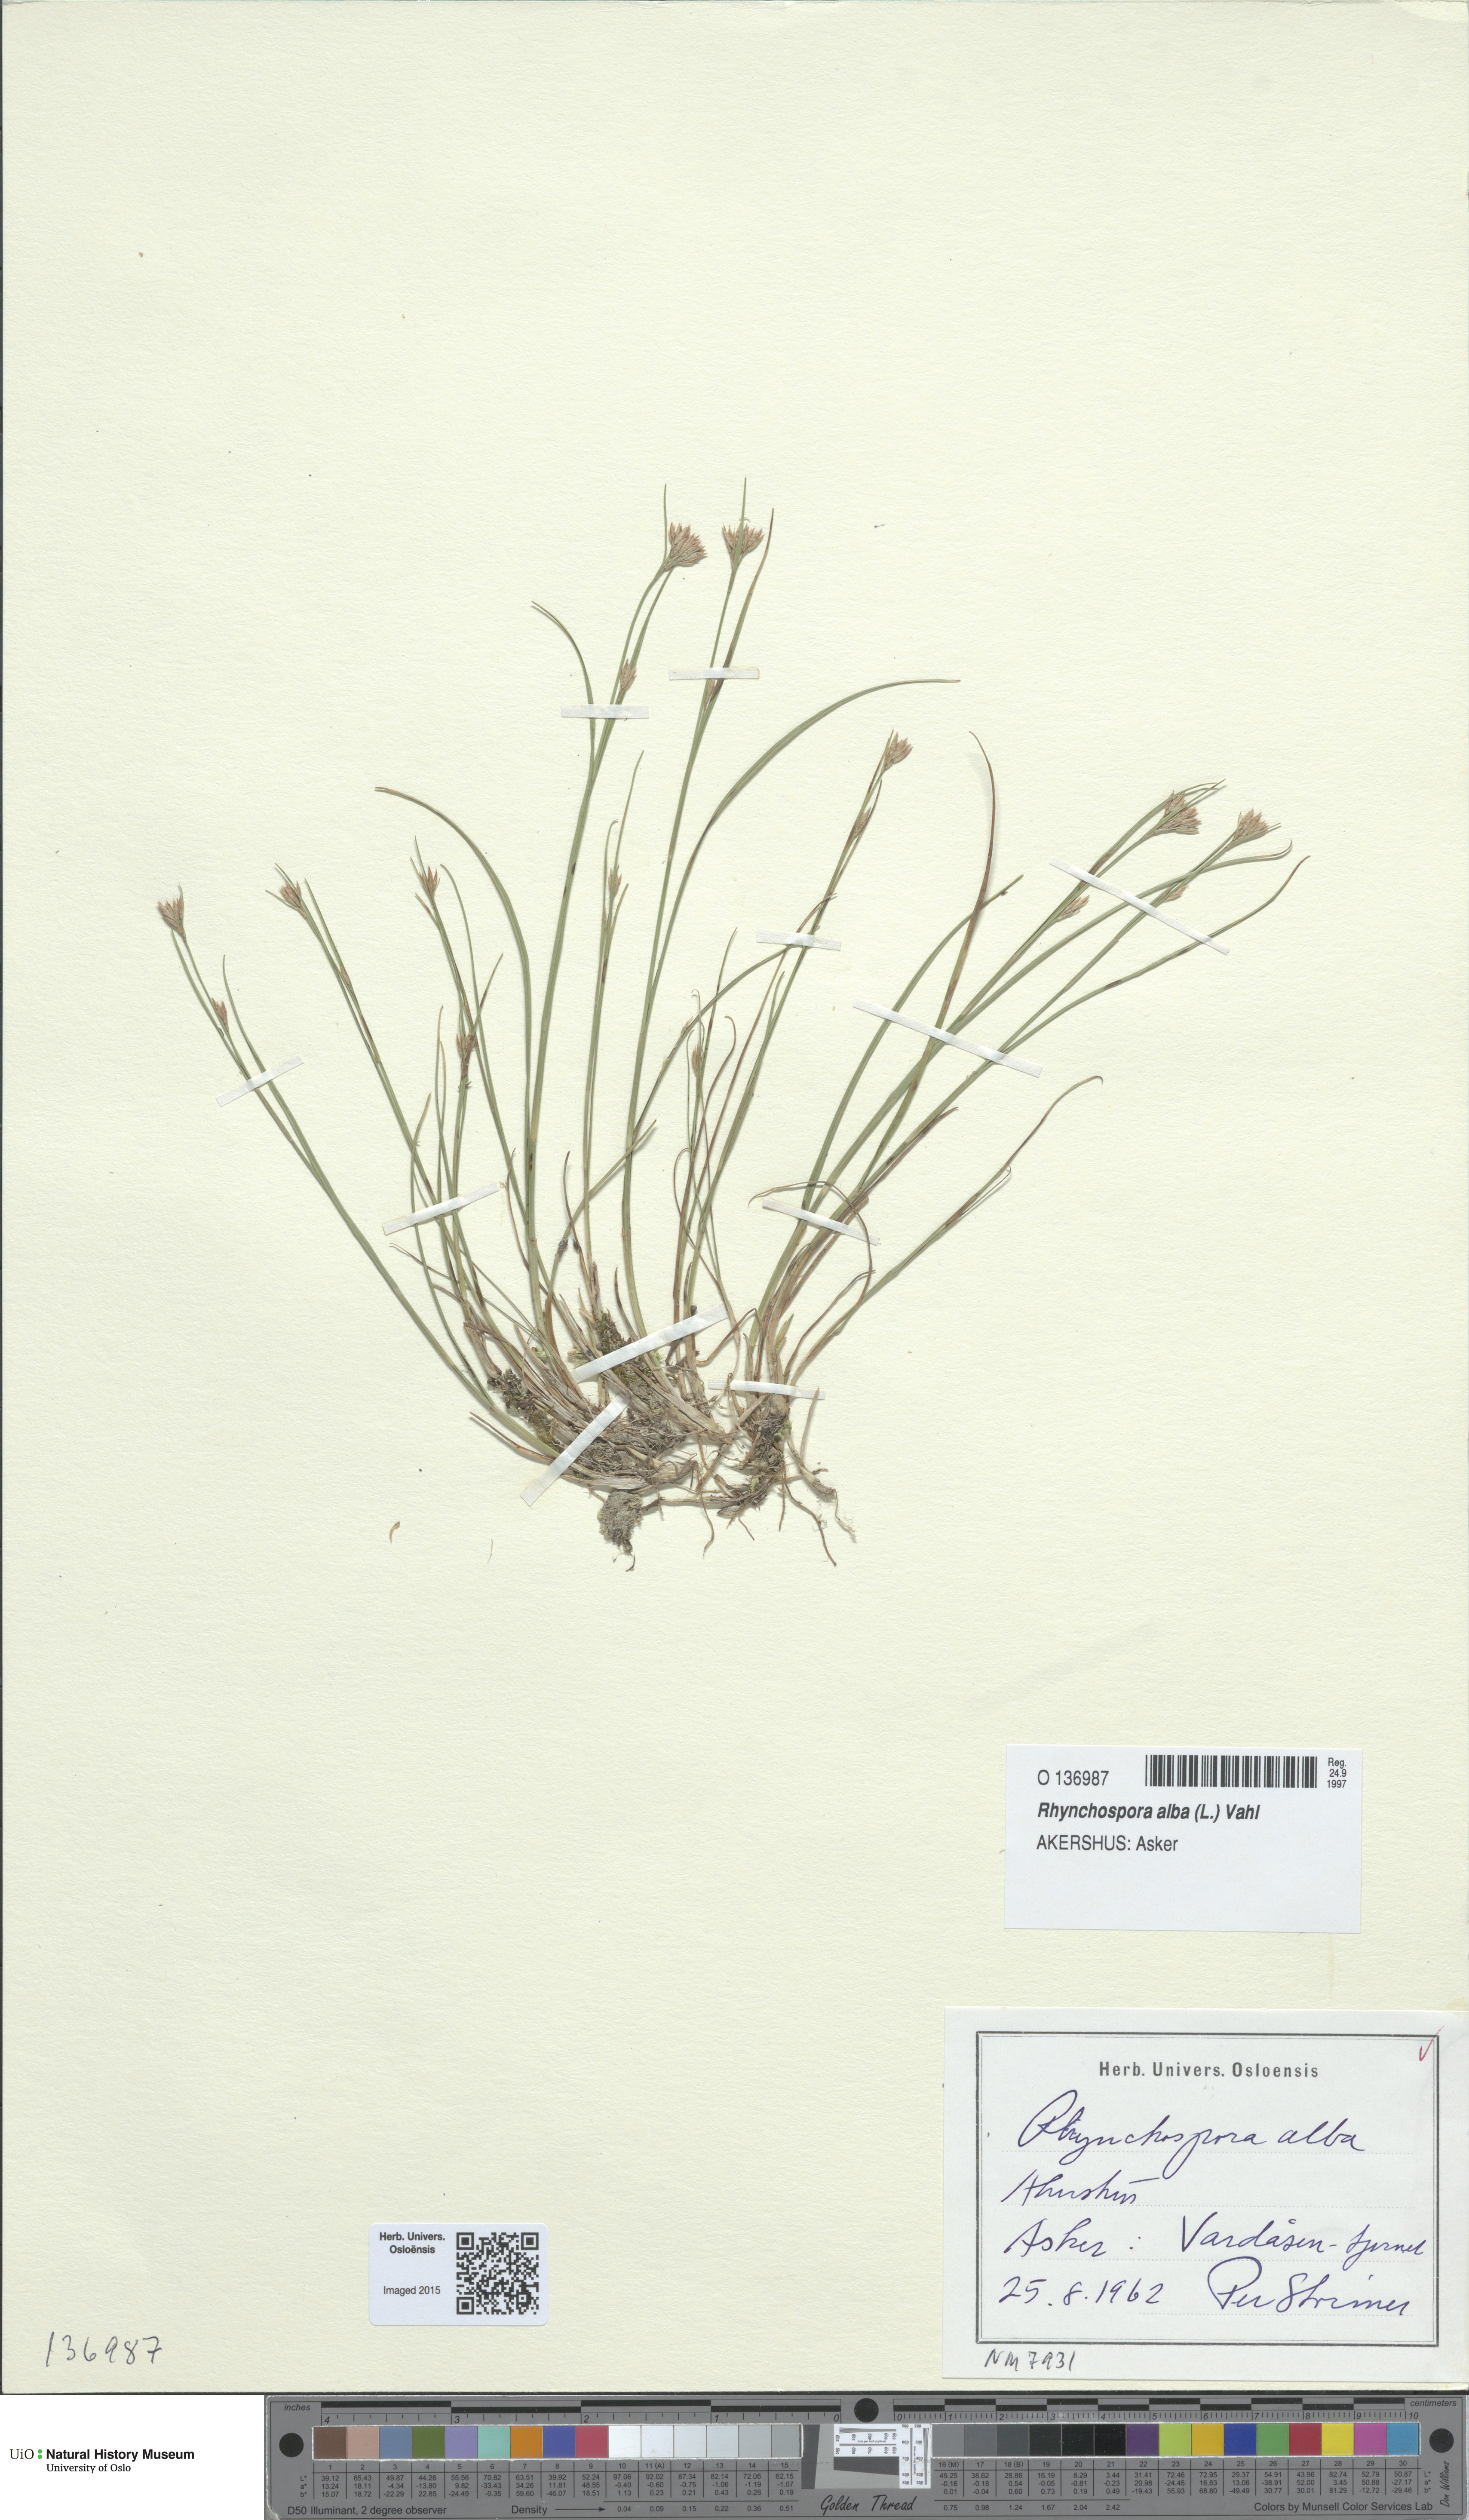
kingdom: Plantae
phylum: Tracheophyta
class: Liliopsida
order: Poales
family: Cyperaceae
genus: Rhynchospora
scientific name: Rhynchospora alba
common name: White beak-sedge
